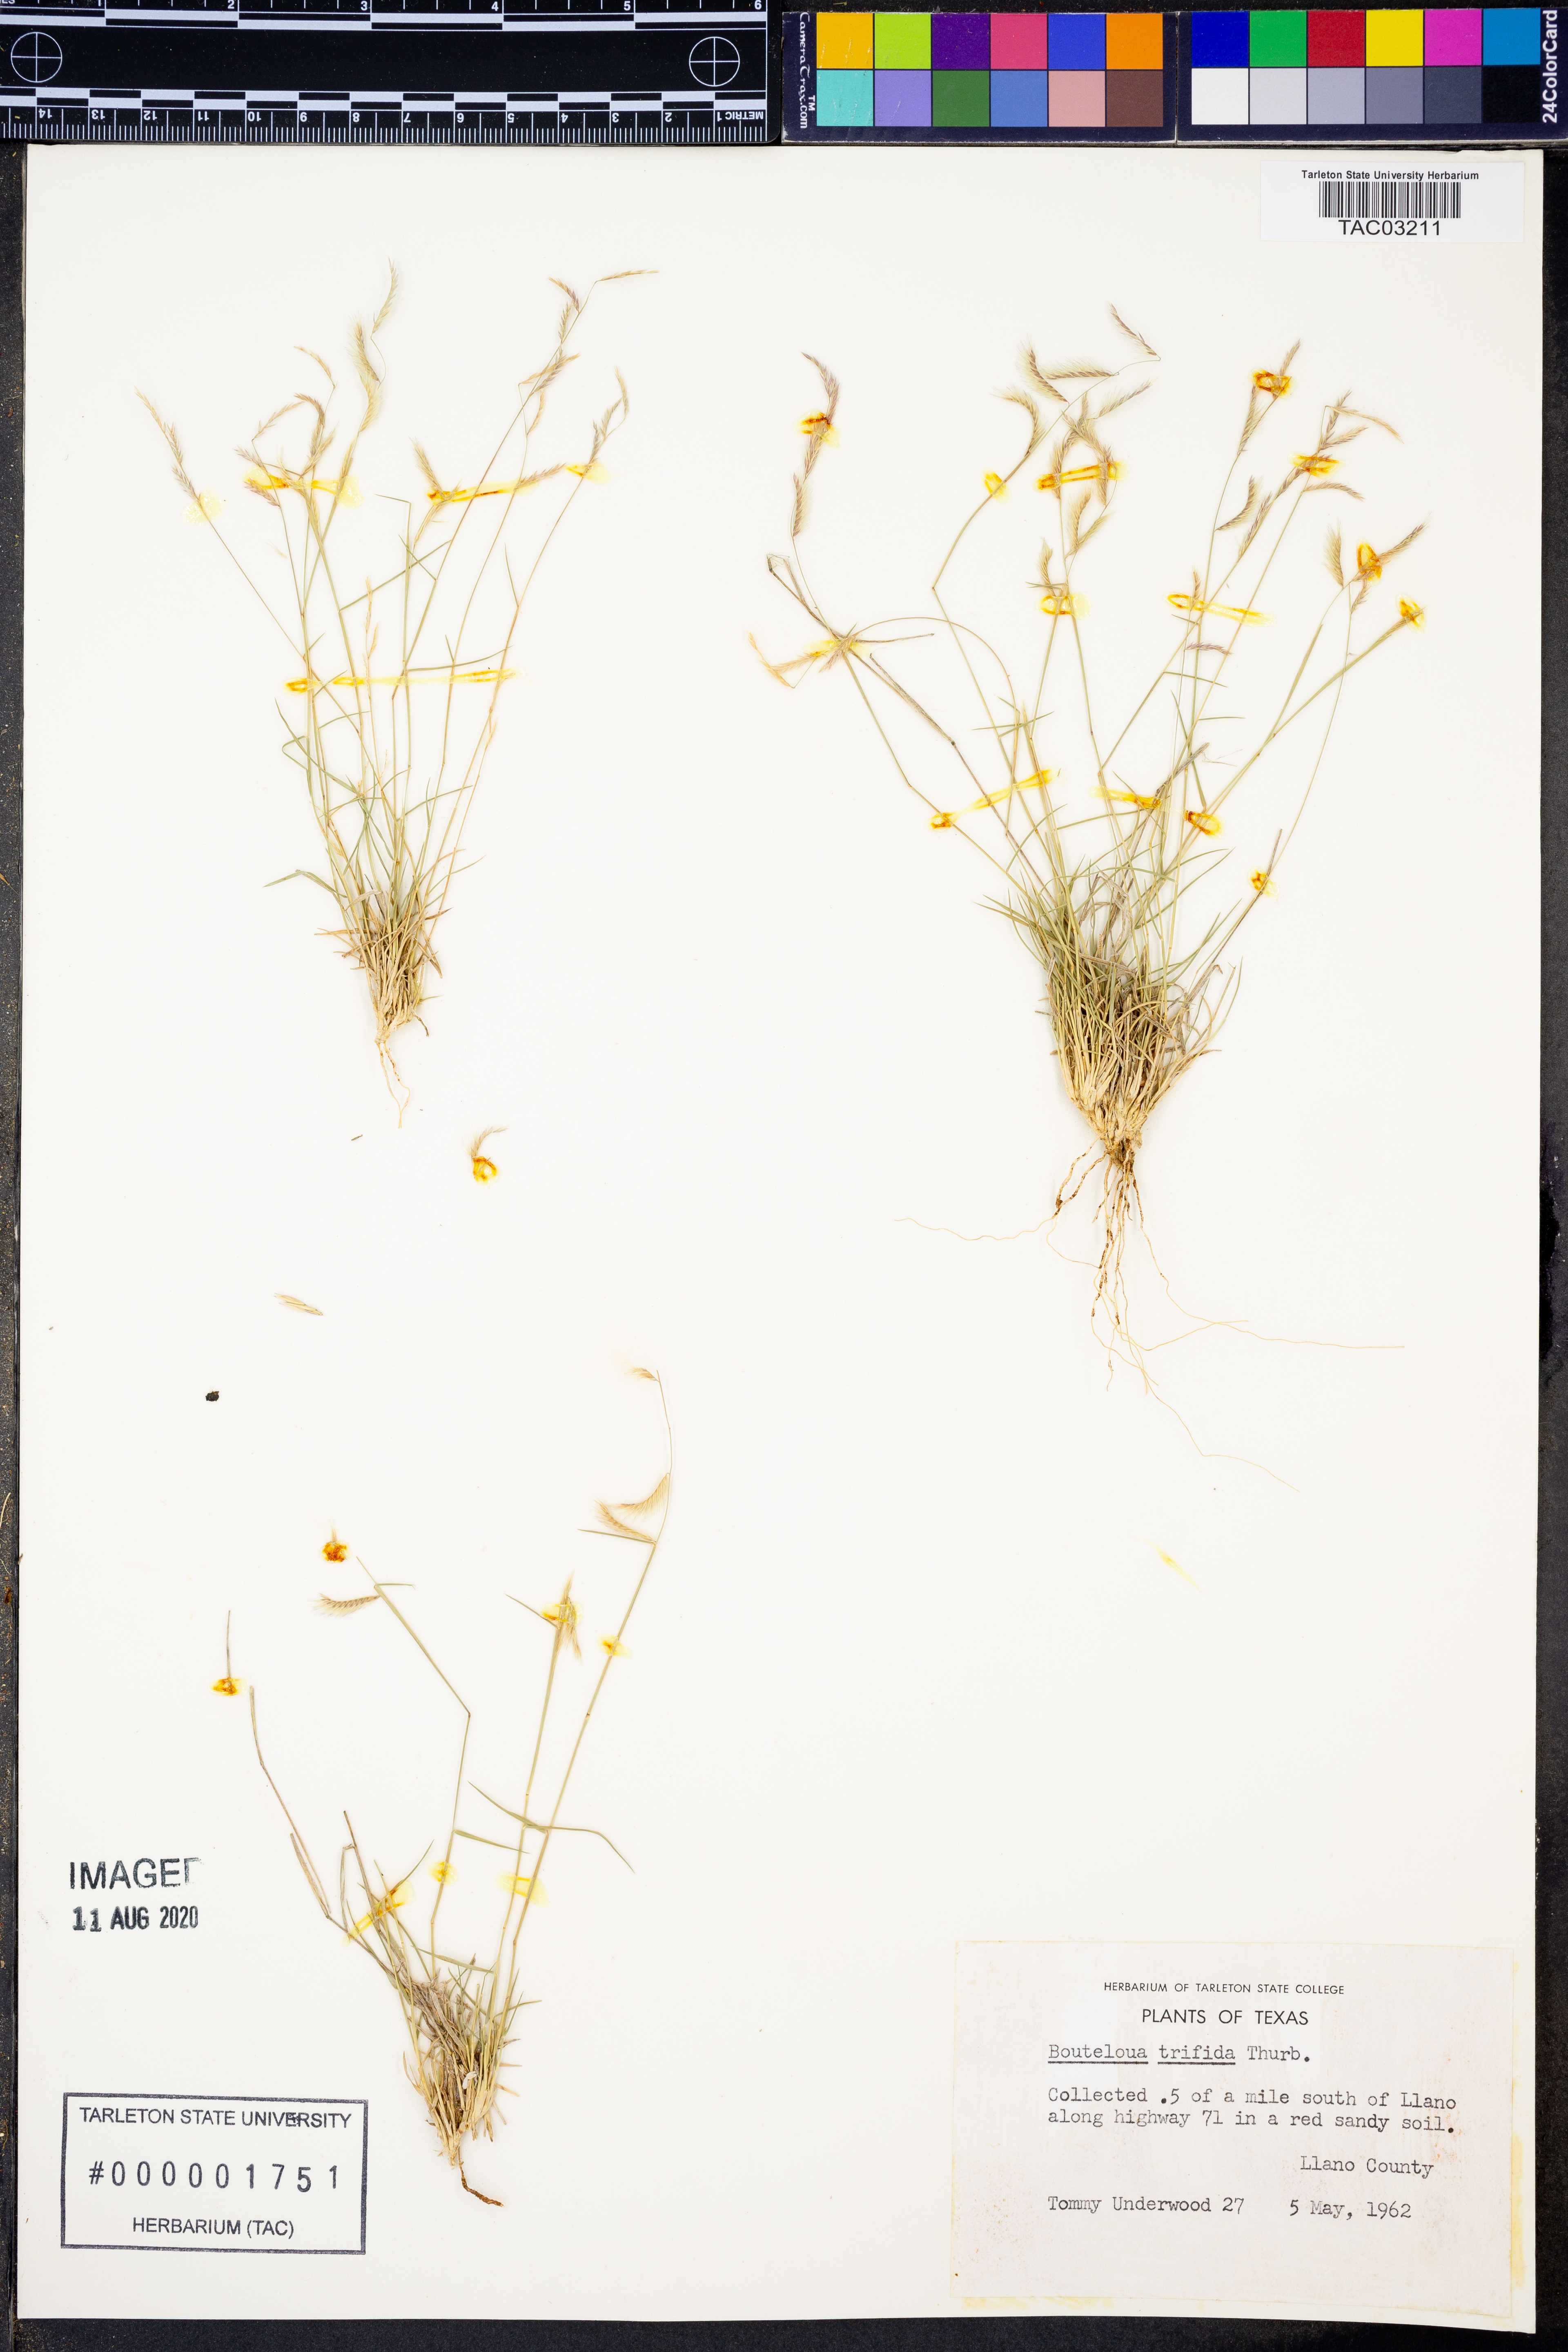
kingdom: Plantae
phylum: Tracheophyta
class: Liliopsida
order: Poales
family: Poaceae
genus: Bouteloua
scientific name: Bouteloua trifida
